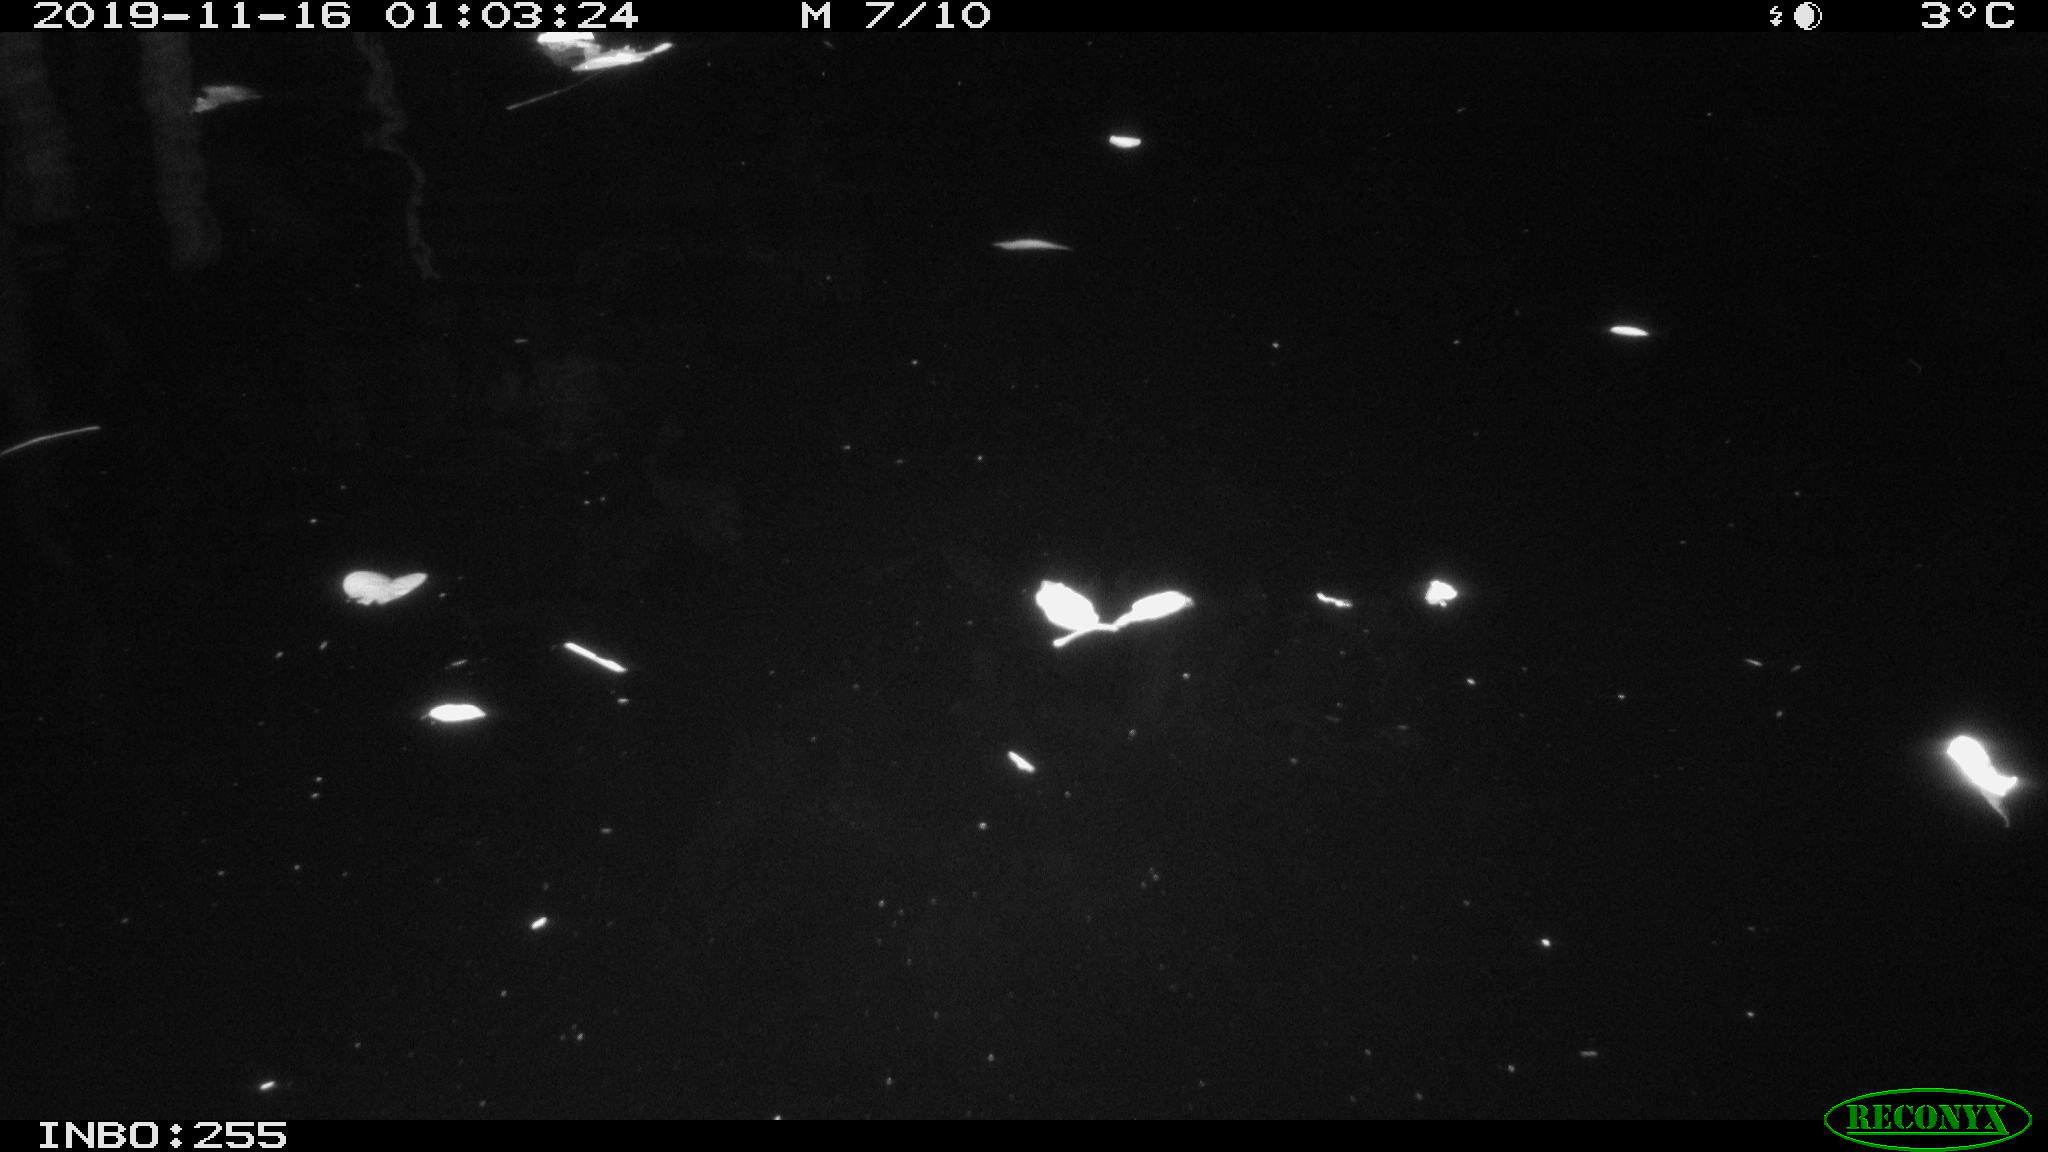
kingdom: Animalia
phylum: Chordata
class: Mammalia
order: Rodentia
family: Muridae
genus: Rattus
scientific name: Rattus norvegicus
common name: Brown rat
